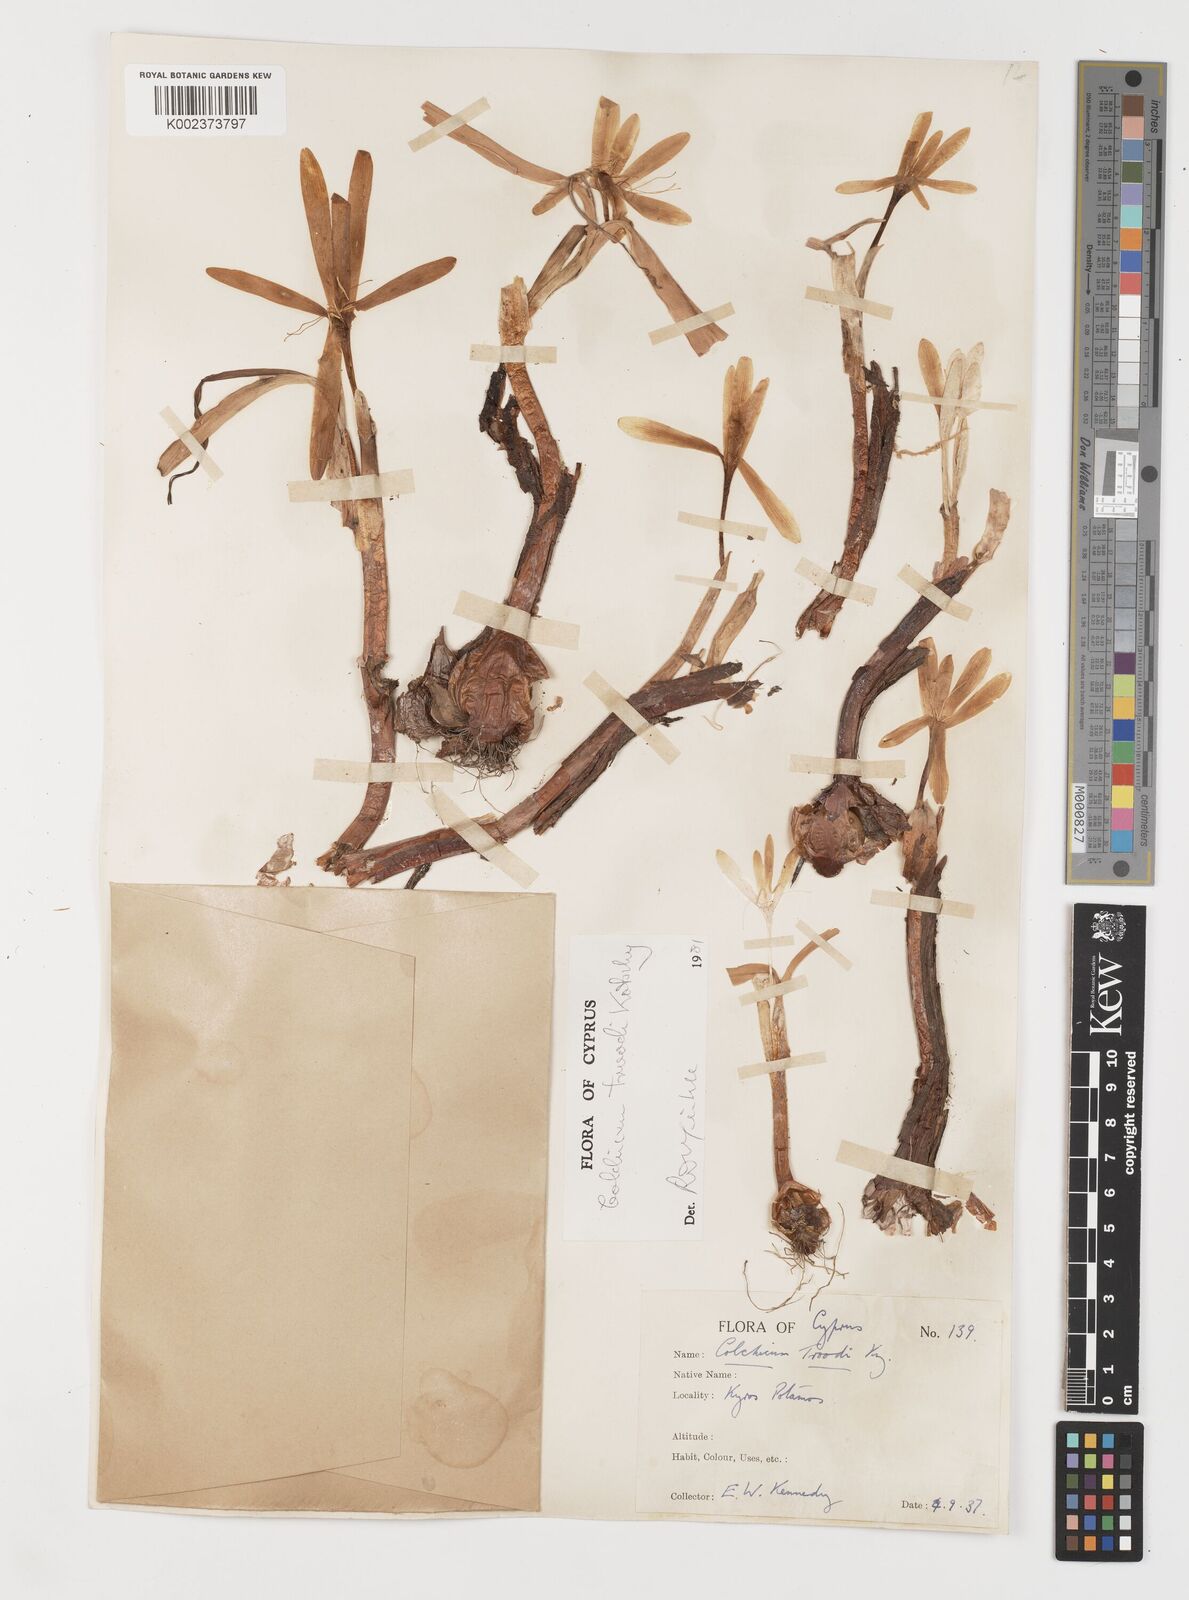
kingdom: Plantae
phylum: Tracheophyta
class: Liliopsida
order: Liliales
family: Colchicaceae
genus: Colchicum
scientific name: Colchicum troodi
